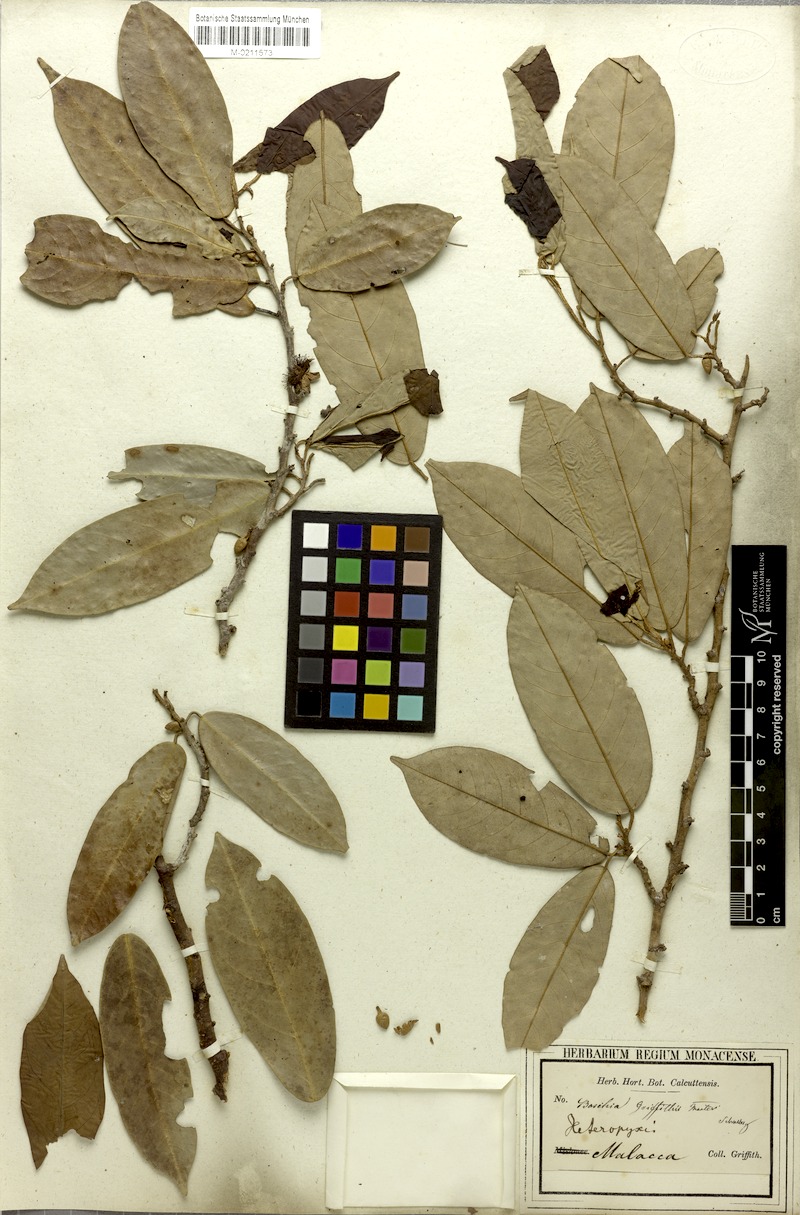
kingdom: Plantae
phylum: Tracheophyta
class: Magnoliopsida
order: Malvales
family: Malvaceae
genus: Boschia
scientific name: Boschia griffithii
